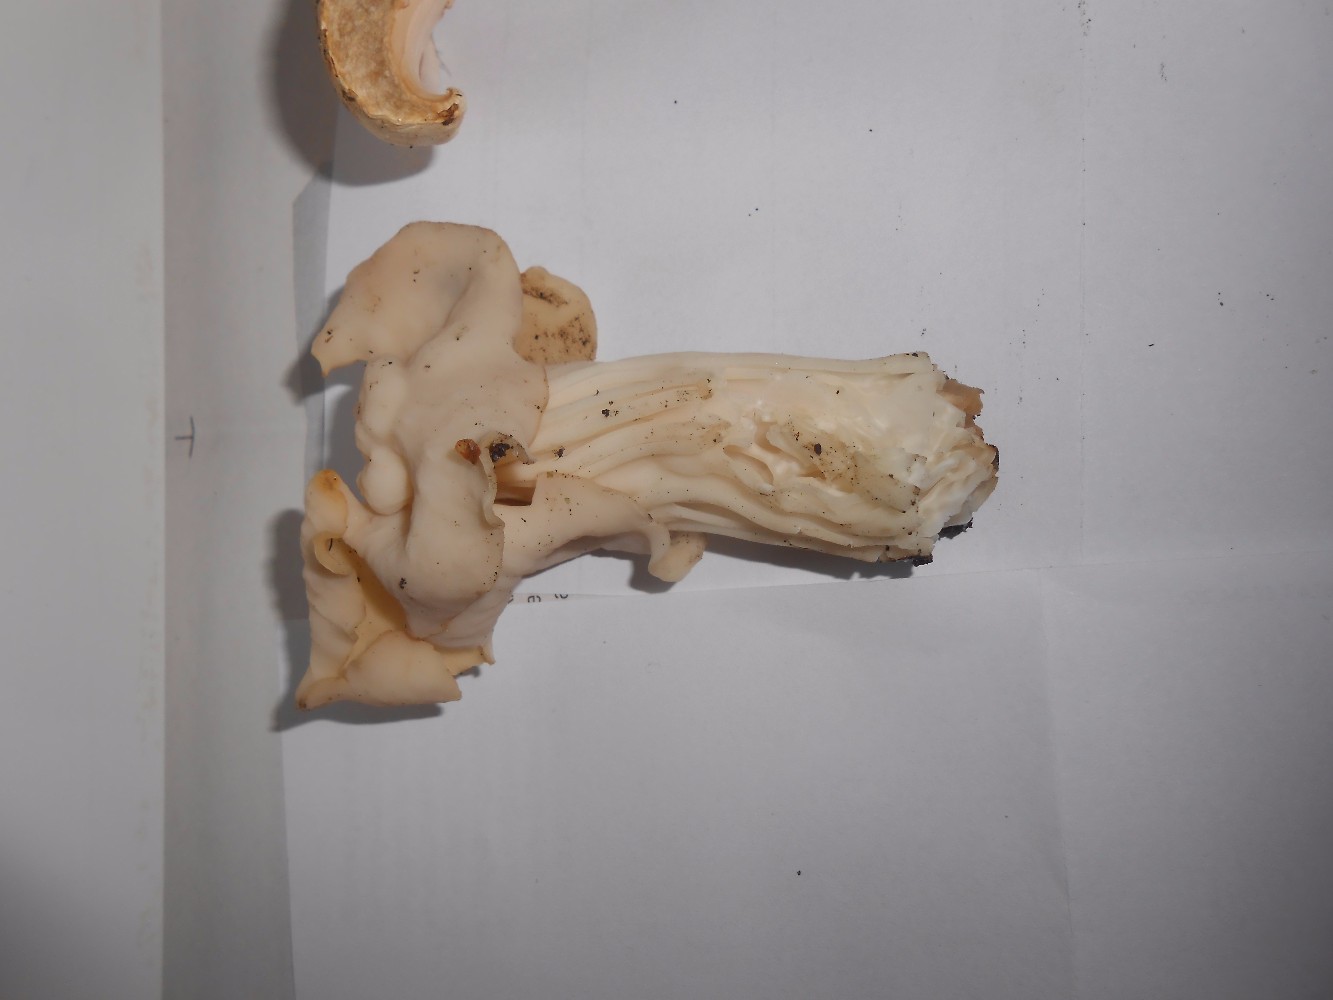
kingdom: Fungi
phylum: Ascomycota
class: Pezizomycetes
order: Pezizales
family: Helvellaceae
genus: Helvella
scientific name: Helvella crispa
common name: kruset foldhat
